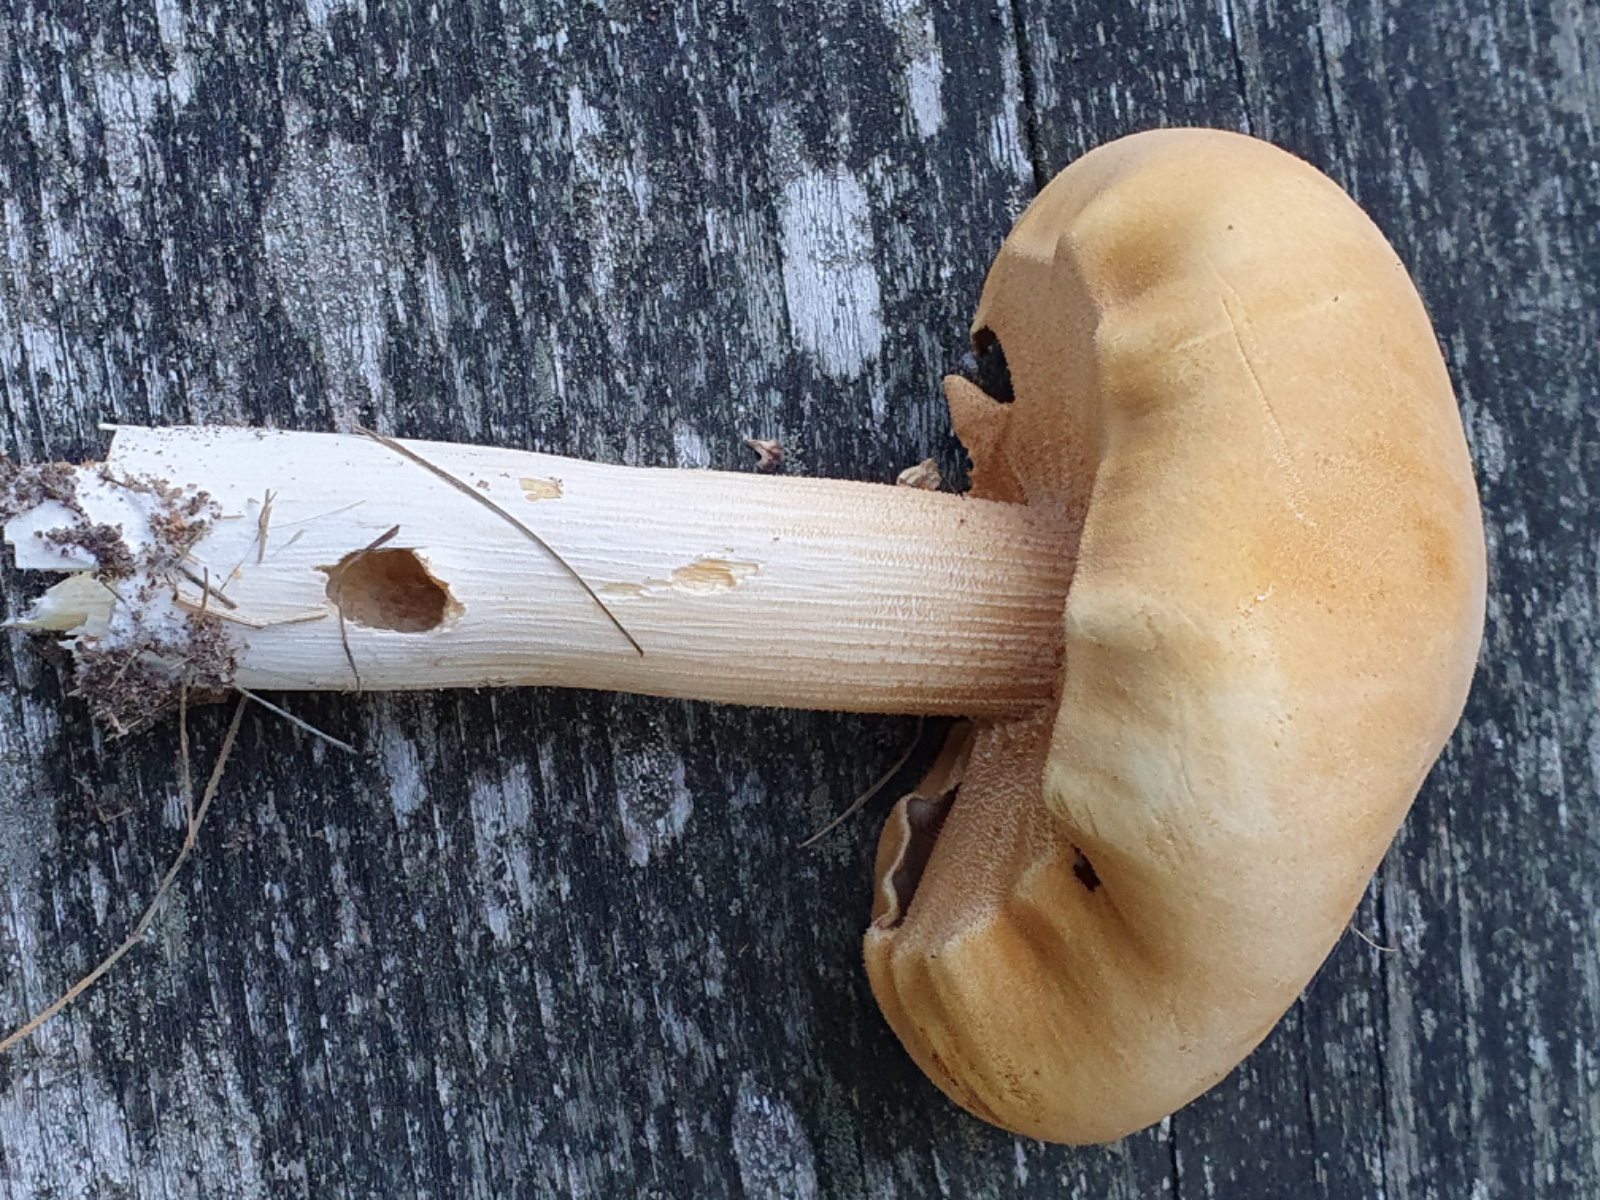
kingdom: Fungi
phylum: Basidiomycota
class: Agaricomycetes
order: Agaricales
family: Tricholomataceae
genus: Phaeolepiota
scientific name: Phaeolepiota aurea
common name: gyldenhat
